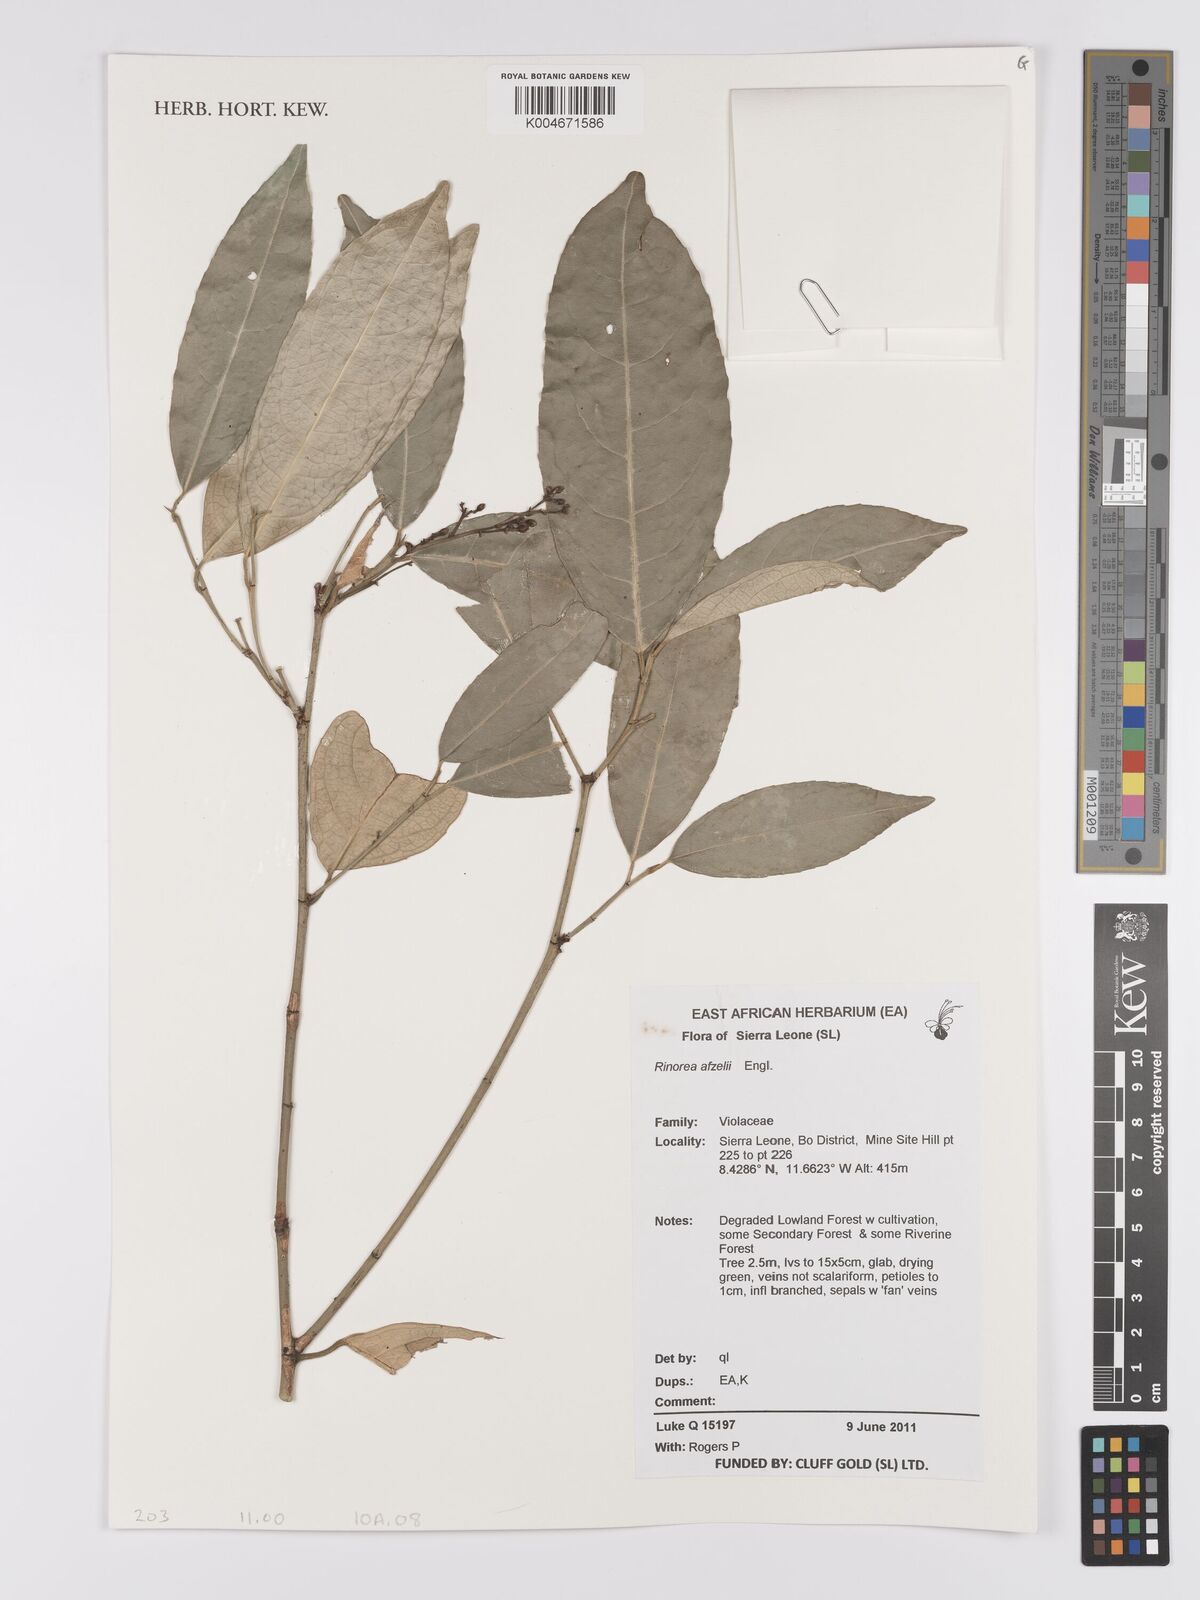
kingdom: Plantae
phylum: Tracheophyta
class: Magnoliopsida
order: Malpighiales
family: Violaceae
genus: Rinorea
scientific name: Rinorea afzelii
